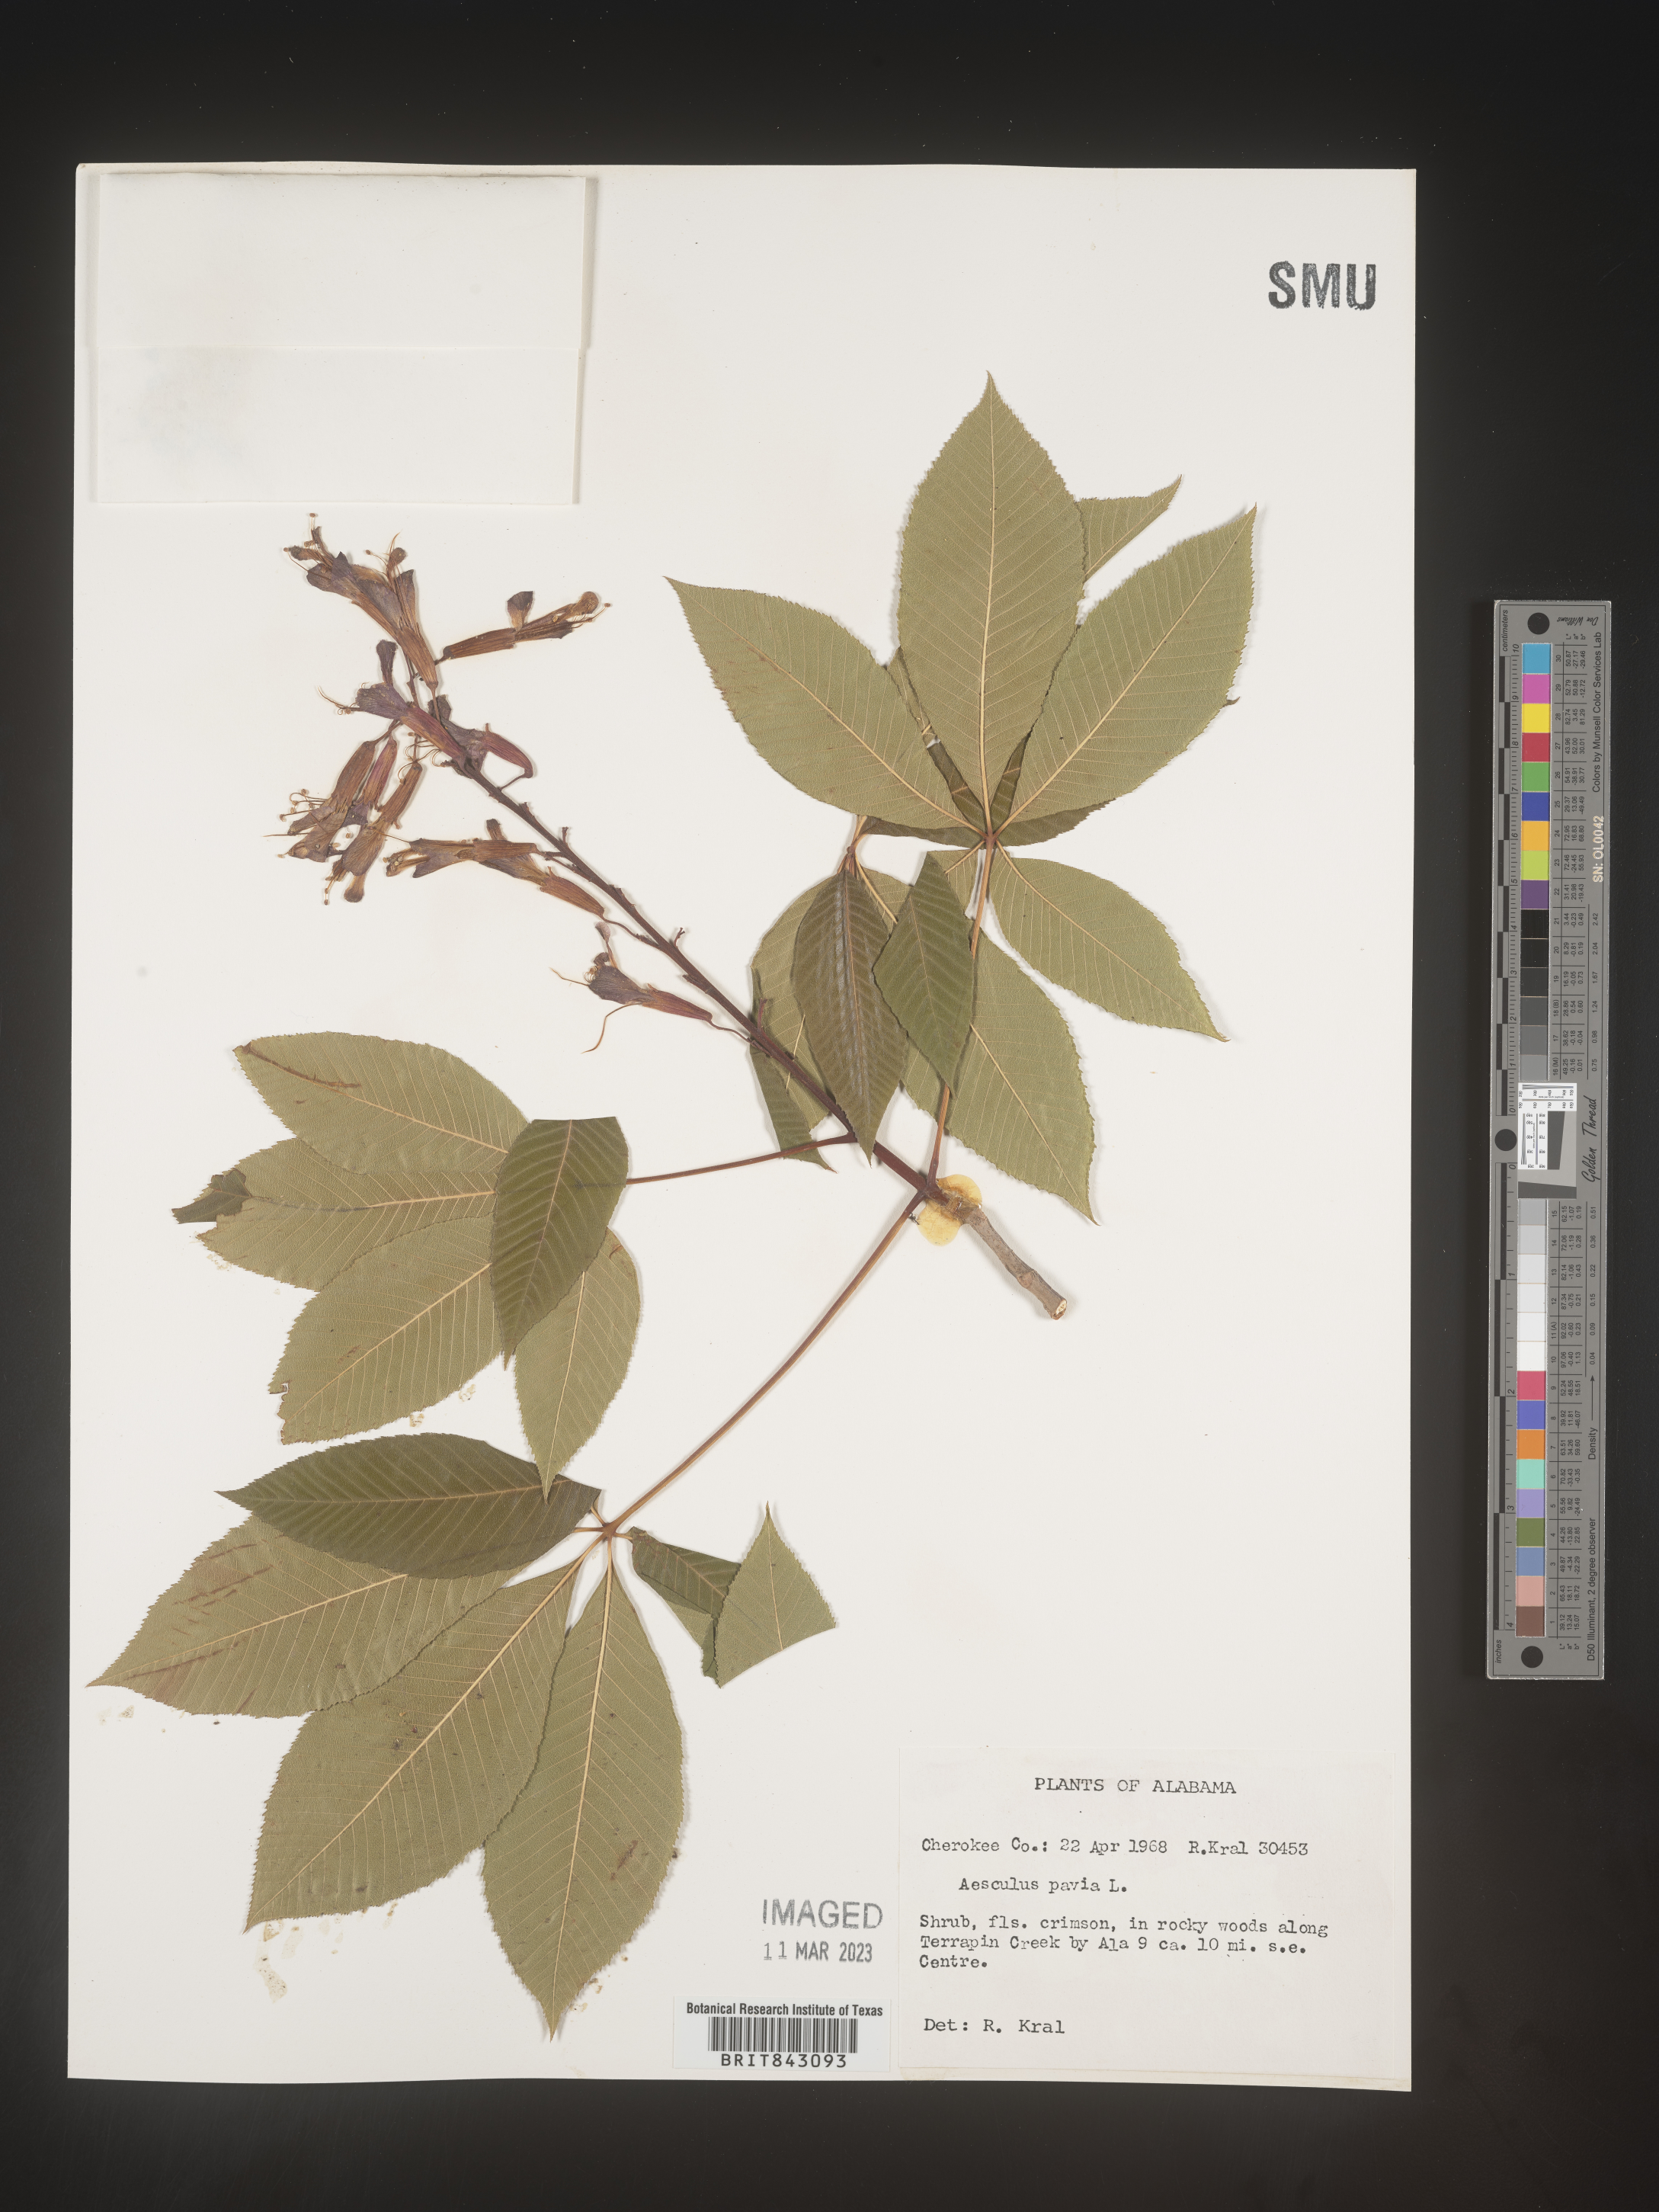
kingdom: Plantae
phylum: Tracheophyta
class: Magnoliopsida
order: Sapindales
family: Sapindaceae
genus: Aesculus
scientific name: Aesculus pavia
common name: Red buckeye
